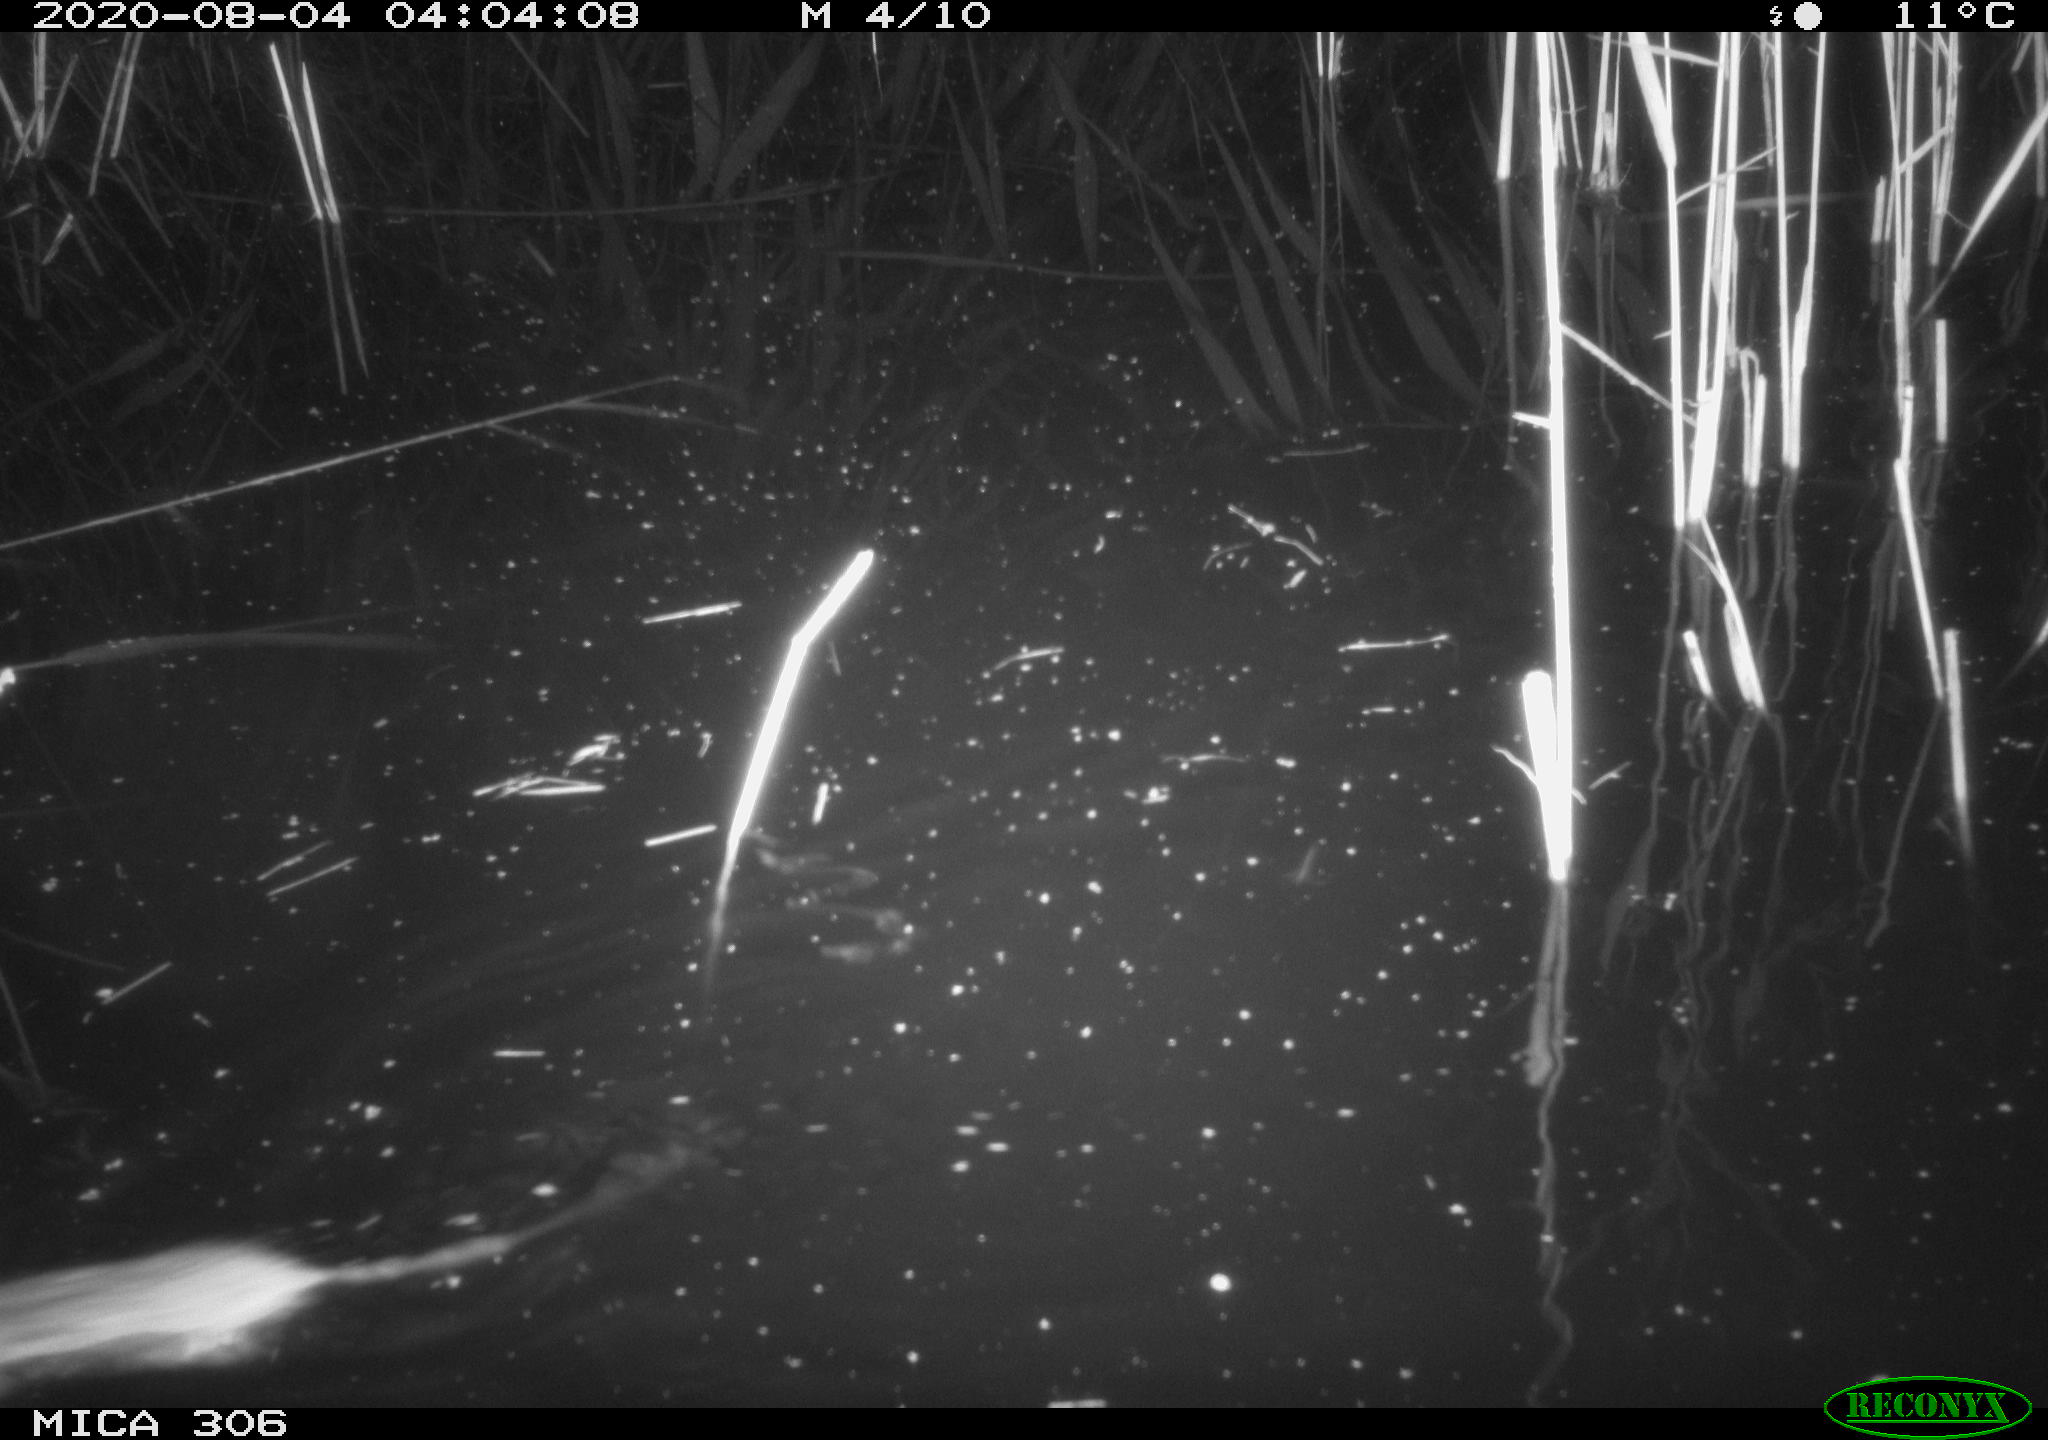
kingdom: Animalia
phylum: Chordata
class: Mammalia
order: Rodentia
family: Muridae
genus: Rattus
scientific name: Rattus norvegicus
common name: Brown rat
